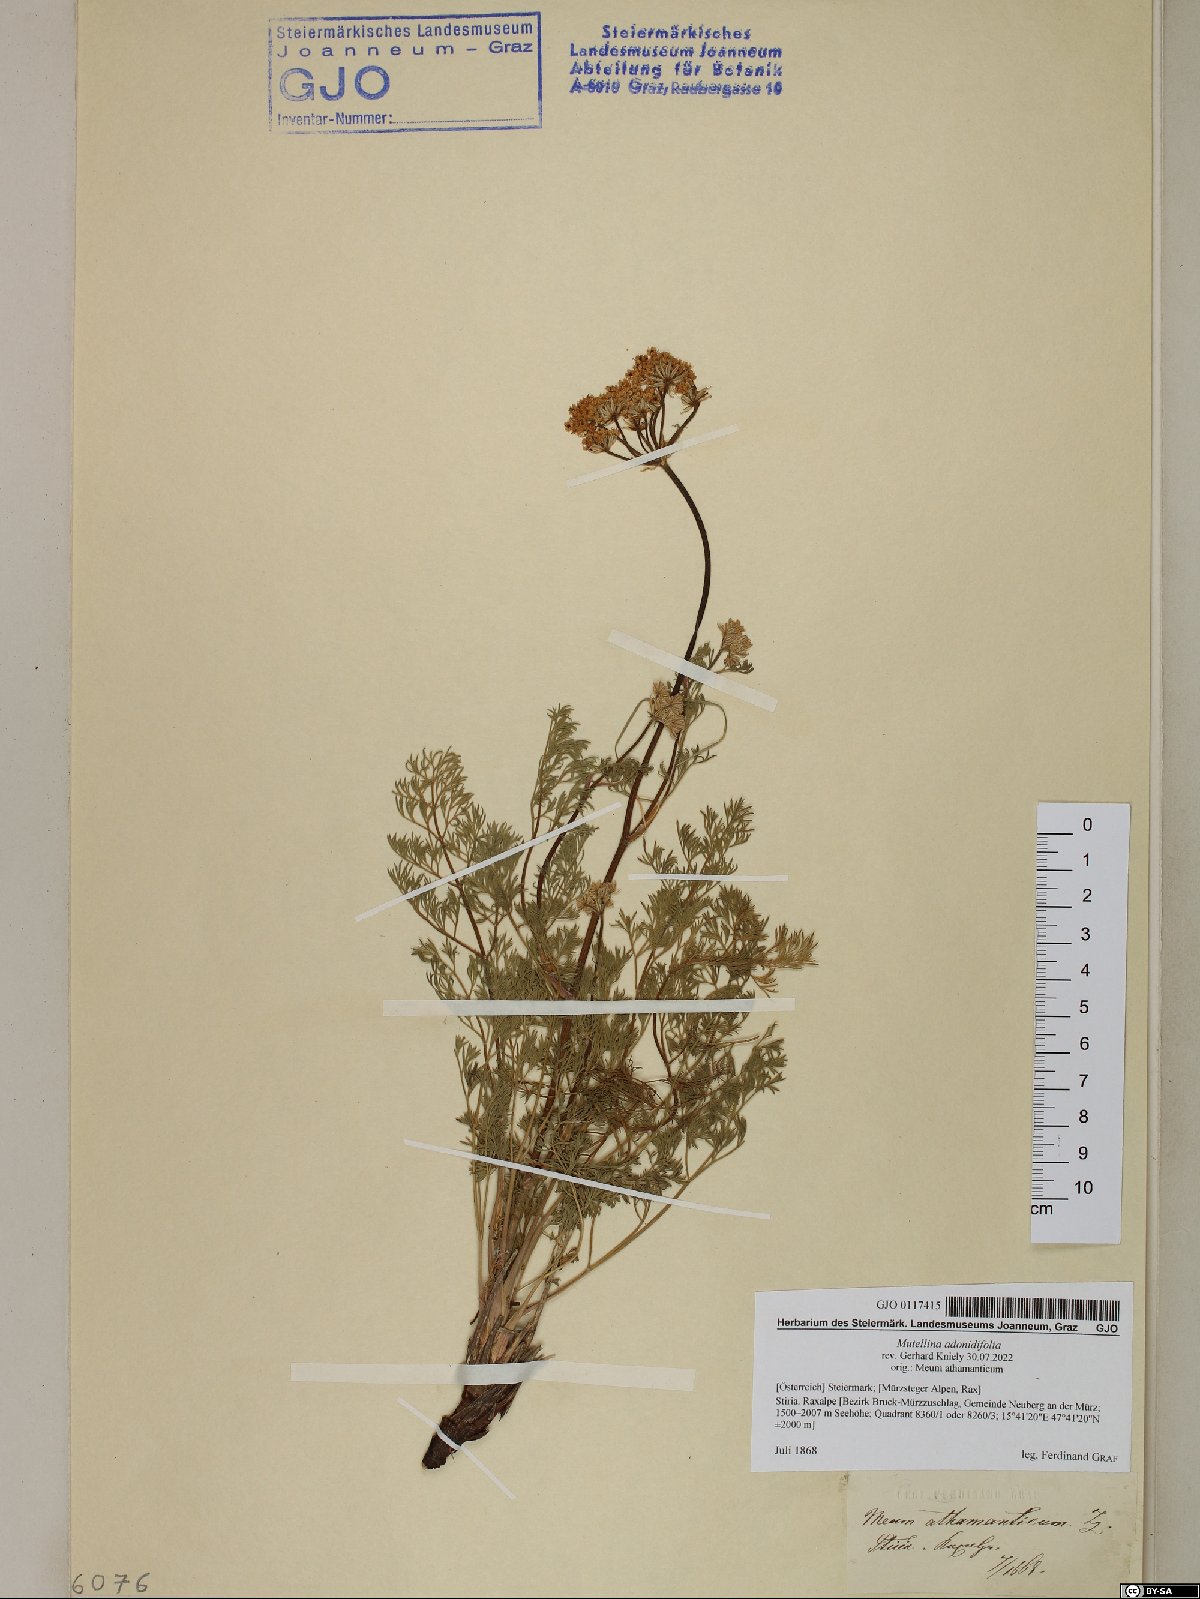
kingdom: Plantae
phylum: Tracheophyta
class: Magnoliopsida
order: Apiales
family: Apiaceae
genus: Mutellina
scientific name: Mutellina adonidifolia
